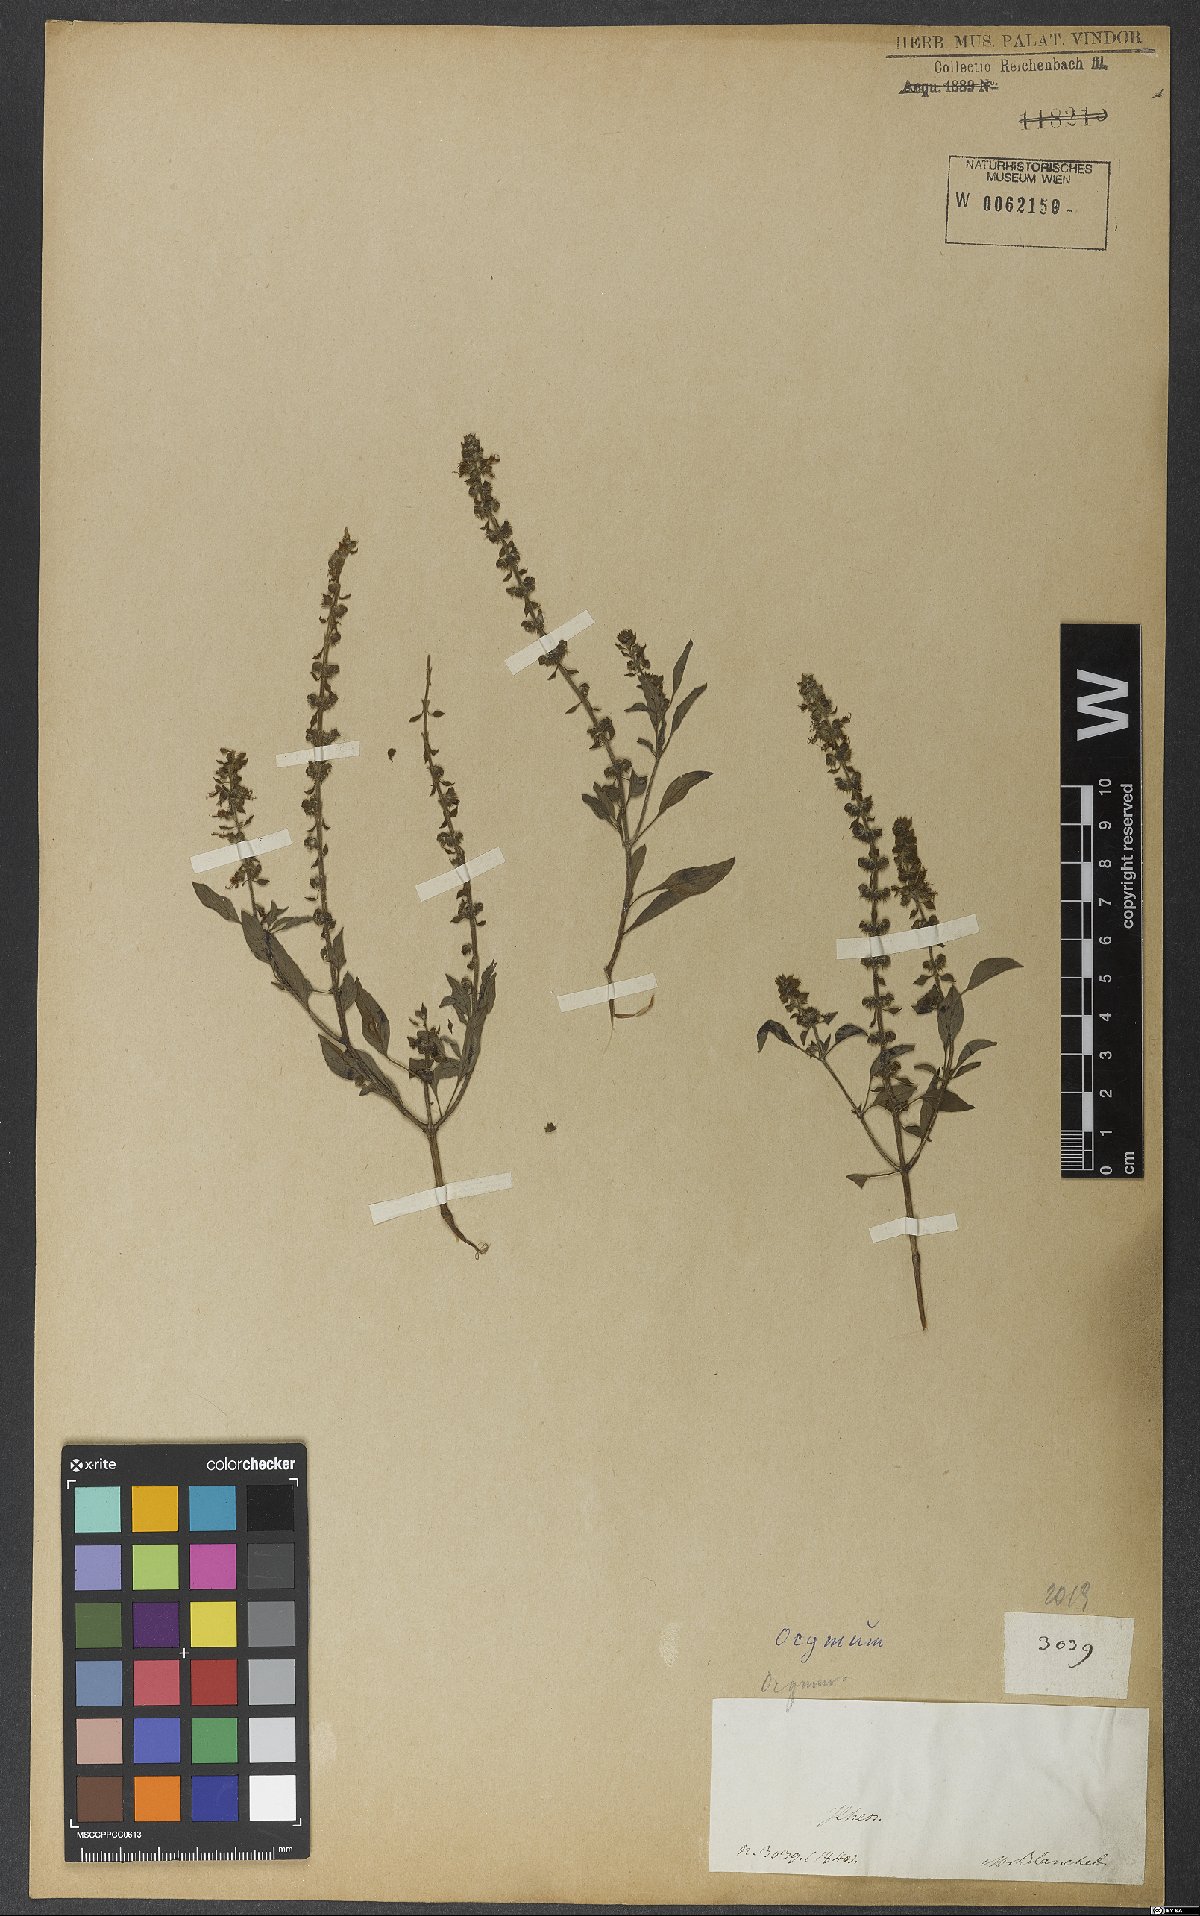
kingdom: Plantae
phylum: Tracheophyta
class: Magnoliopsida
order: Lamiales
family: Lamiaceae
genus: Ocimum
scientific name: Ocimum
